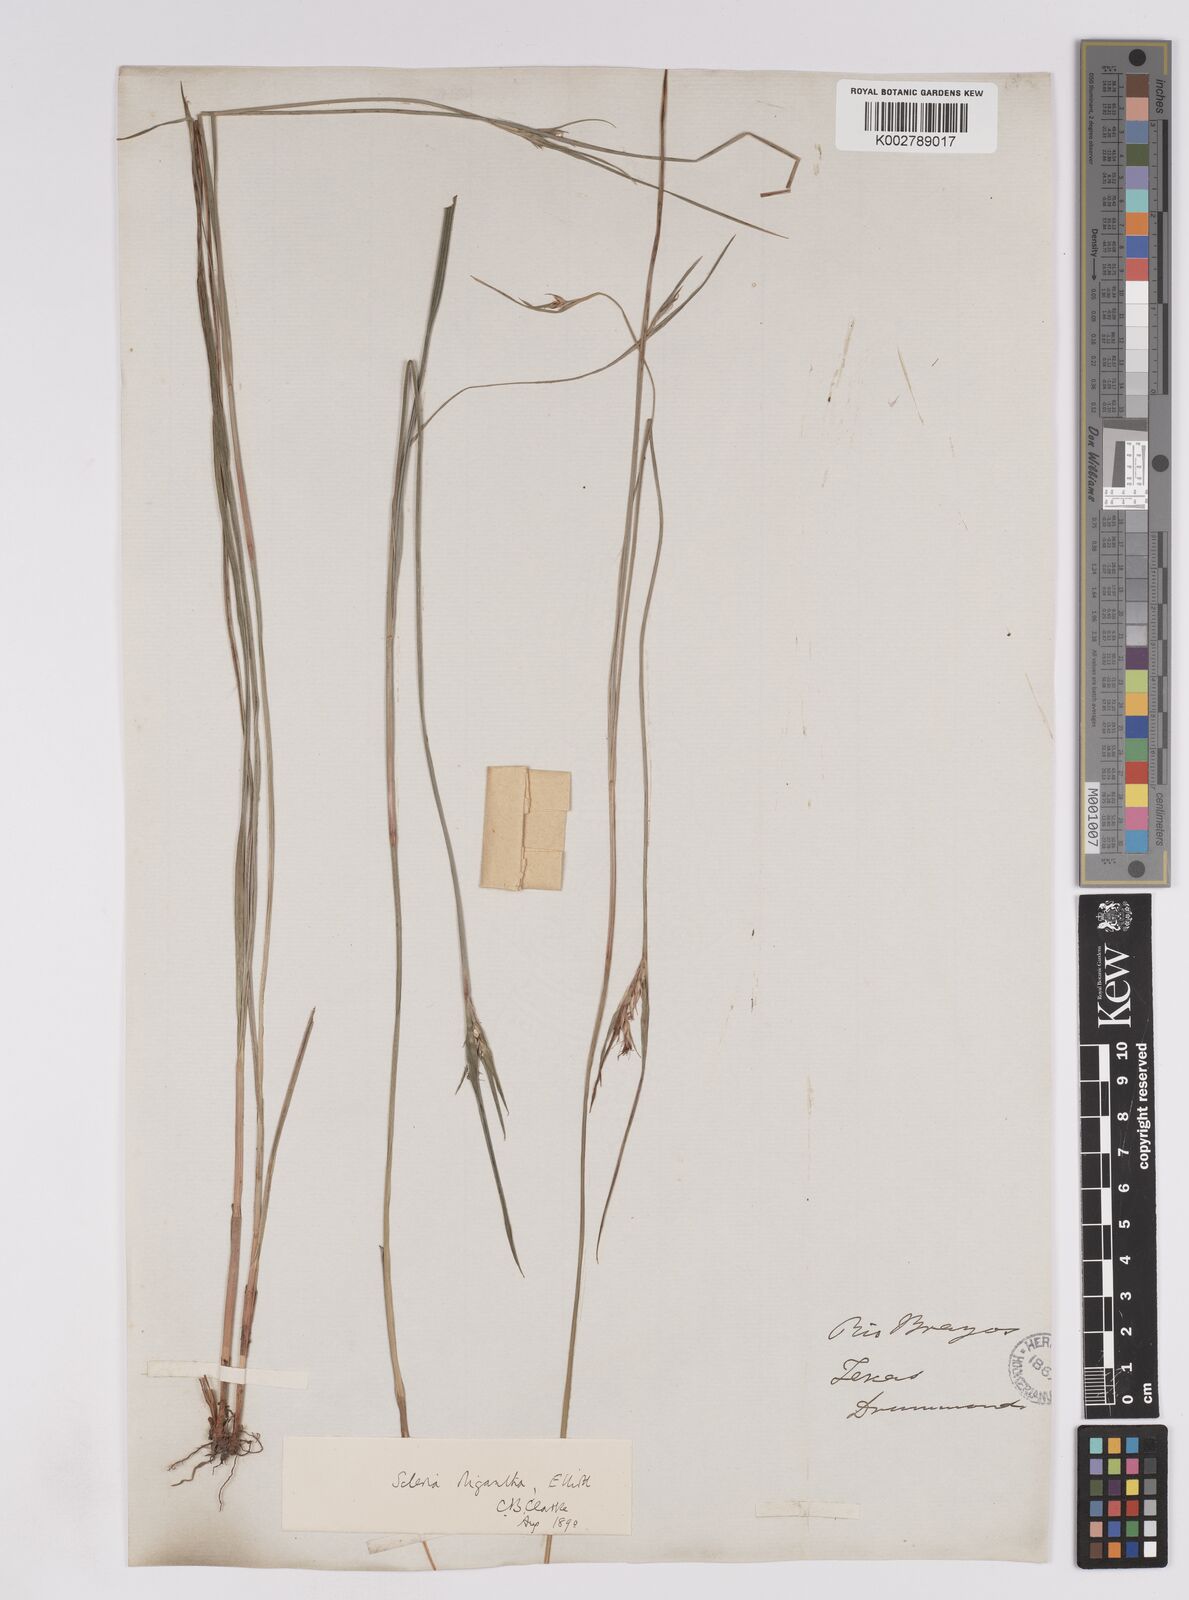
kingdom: Plantae
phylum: Tracheophyta
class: Liliopsida
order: Poales
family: Cyperaceae
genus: Scleria
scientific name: Scleria oligantha
